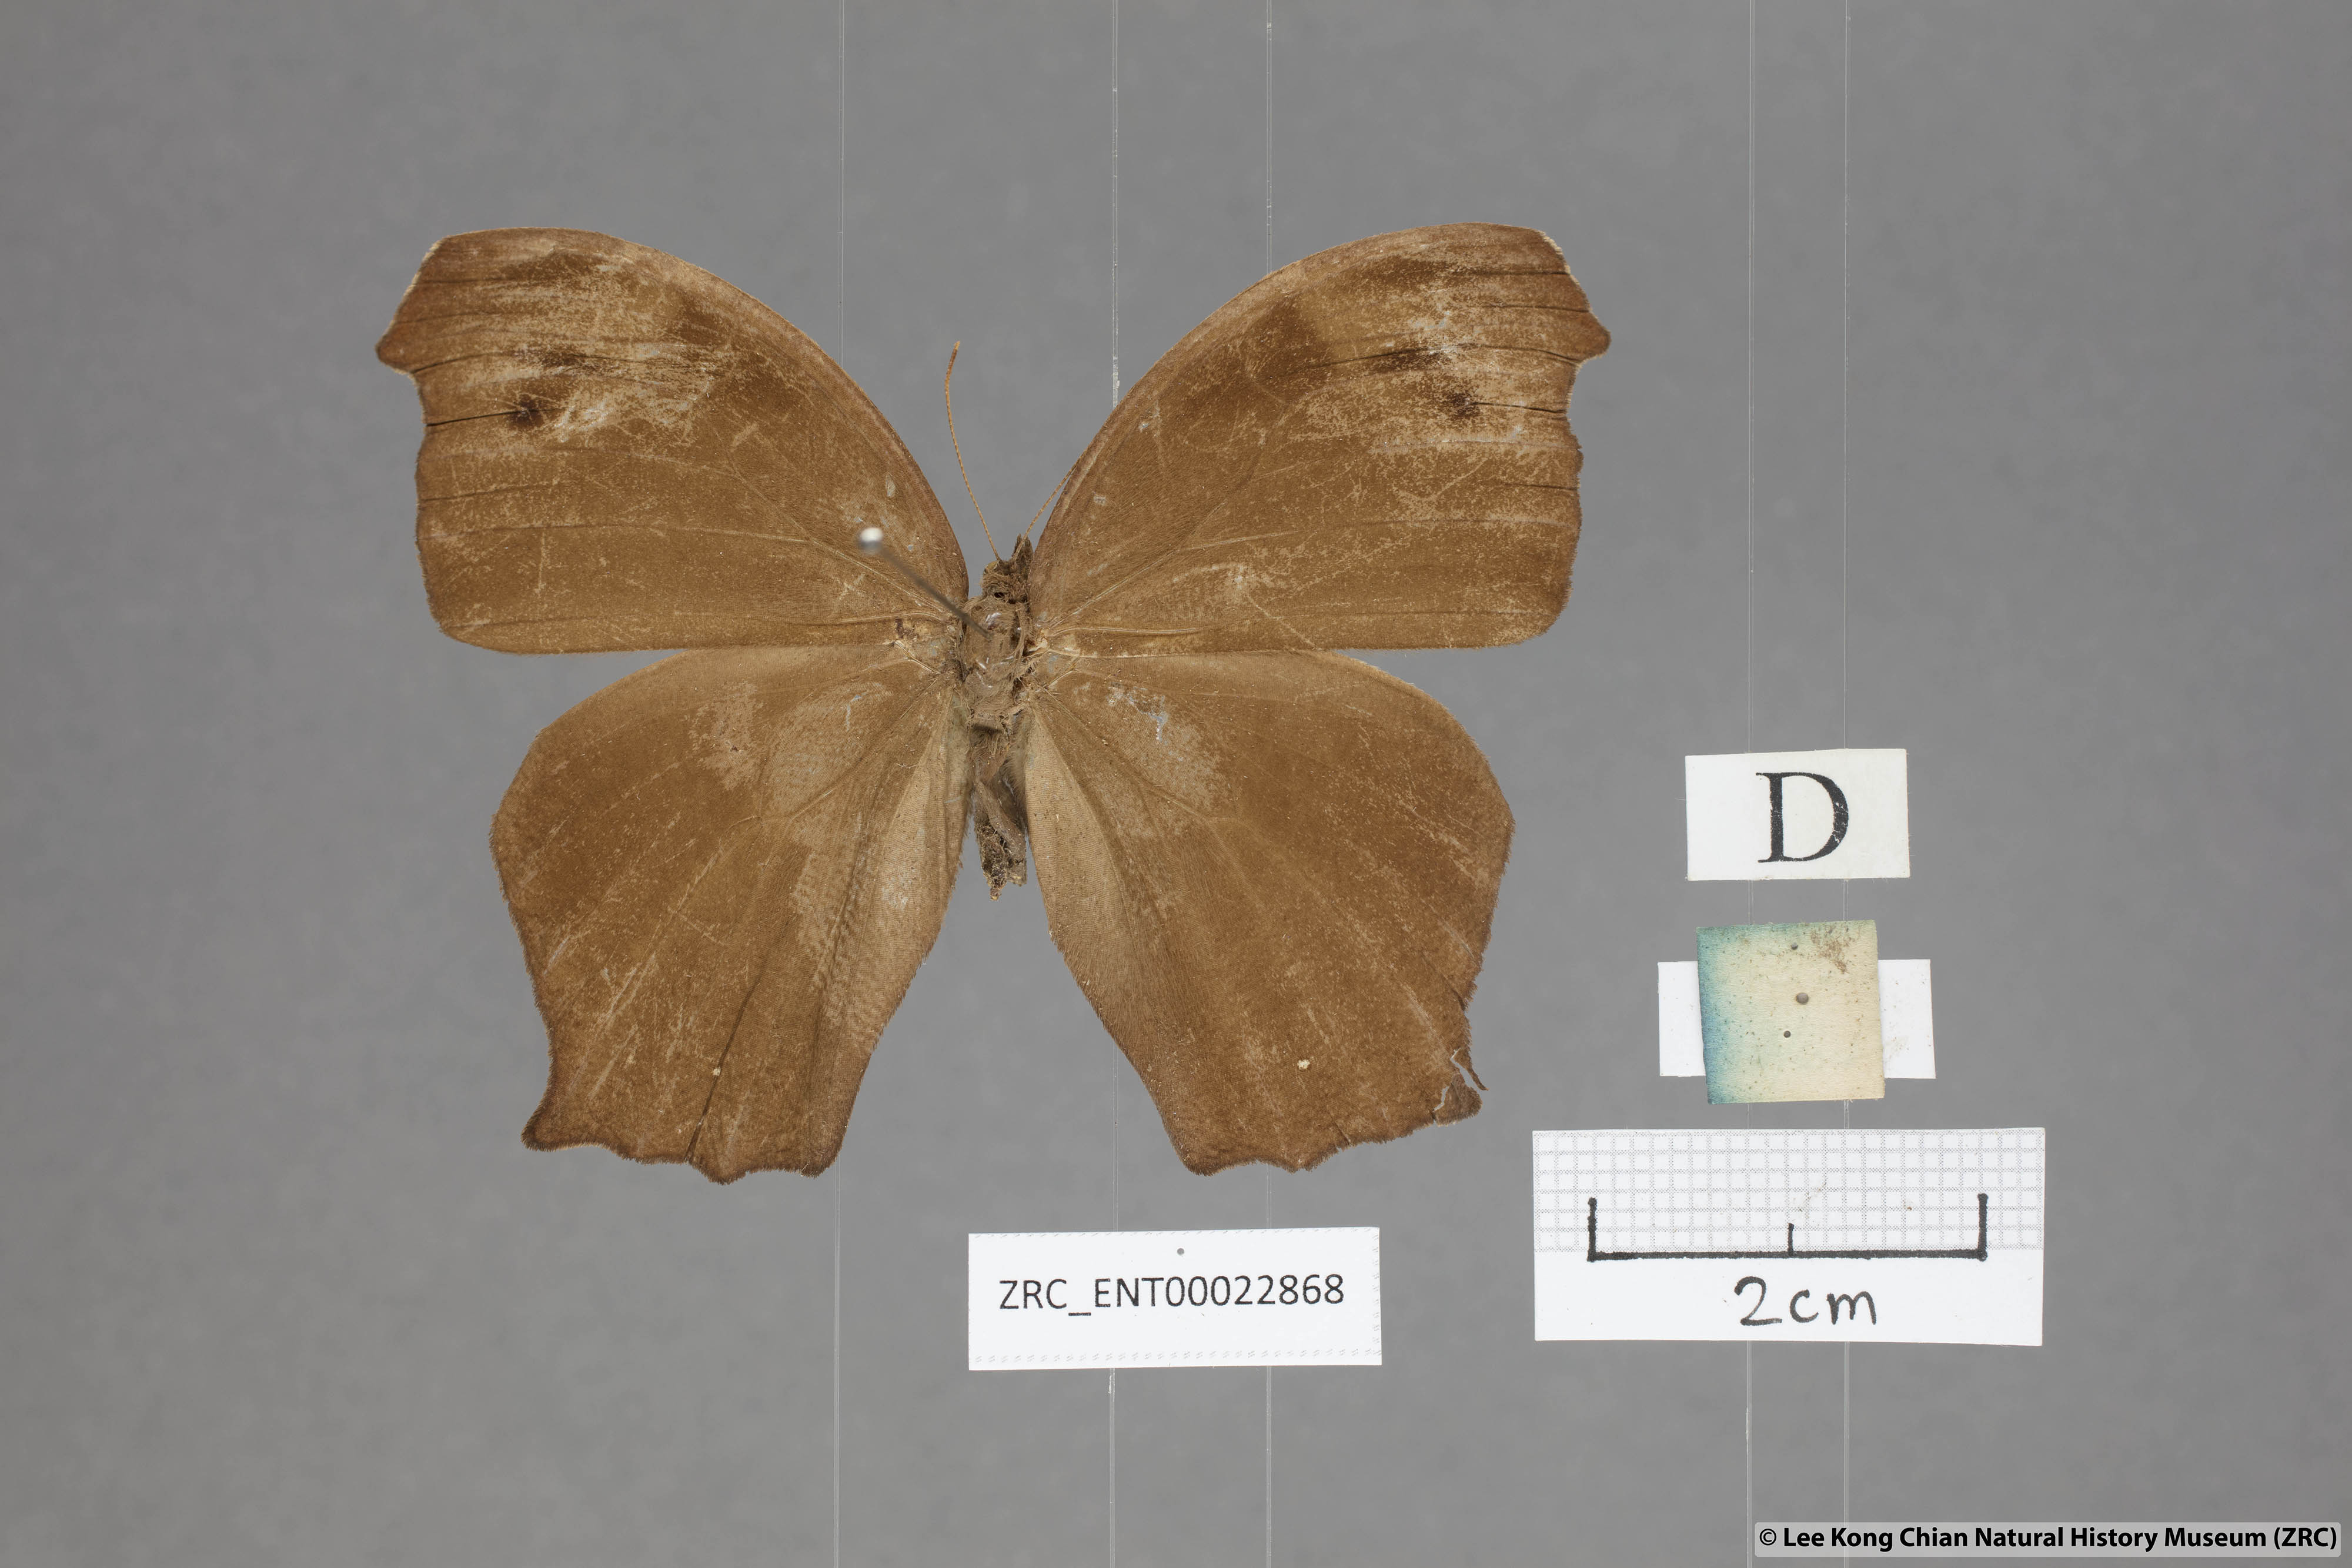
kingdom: Animalia
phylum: Arthropoda
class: Insecta
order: Lepidoptera
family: Nymphalidae
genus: Melanitis
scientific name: Melanitis phedima
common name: Dark evening brown
